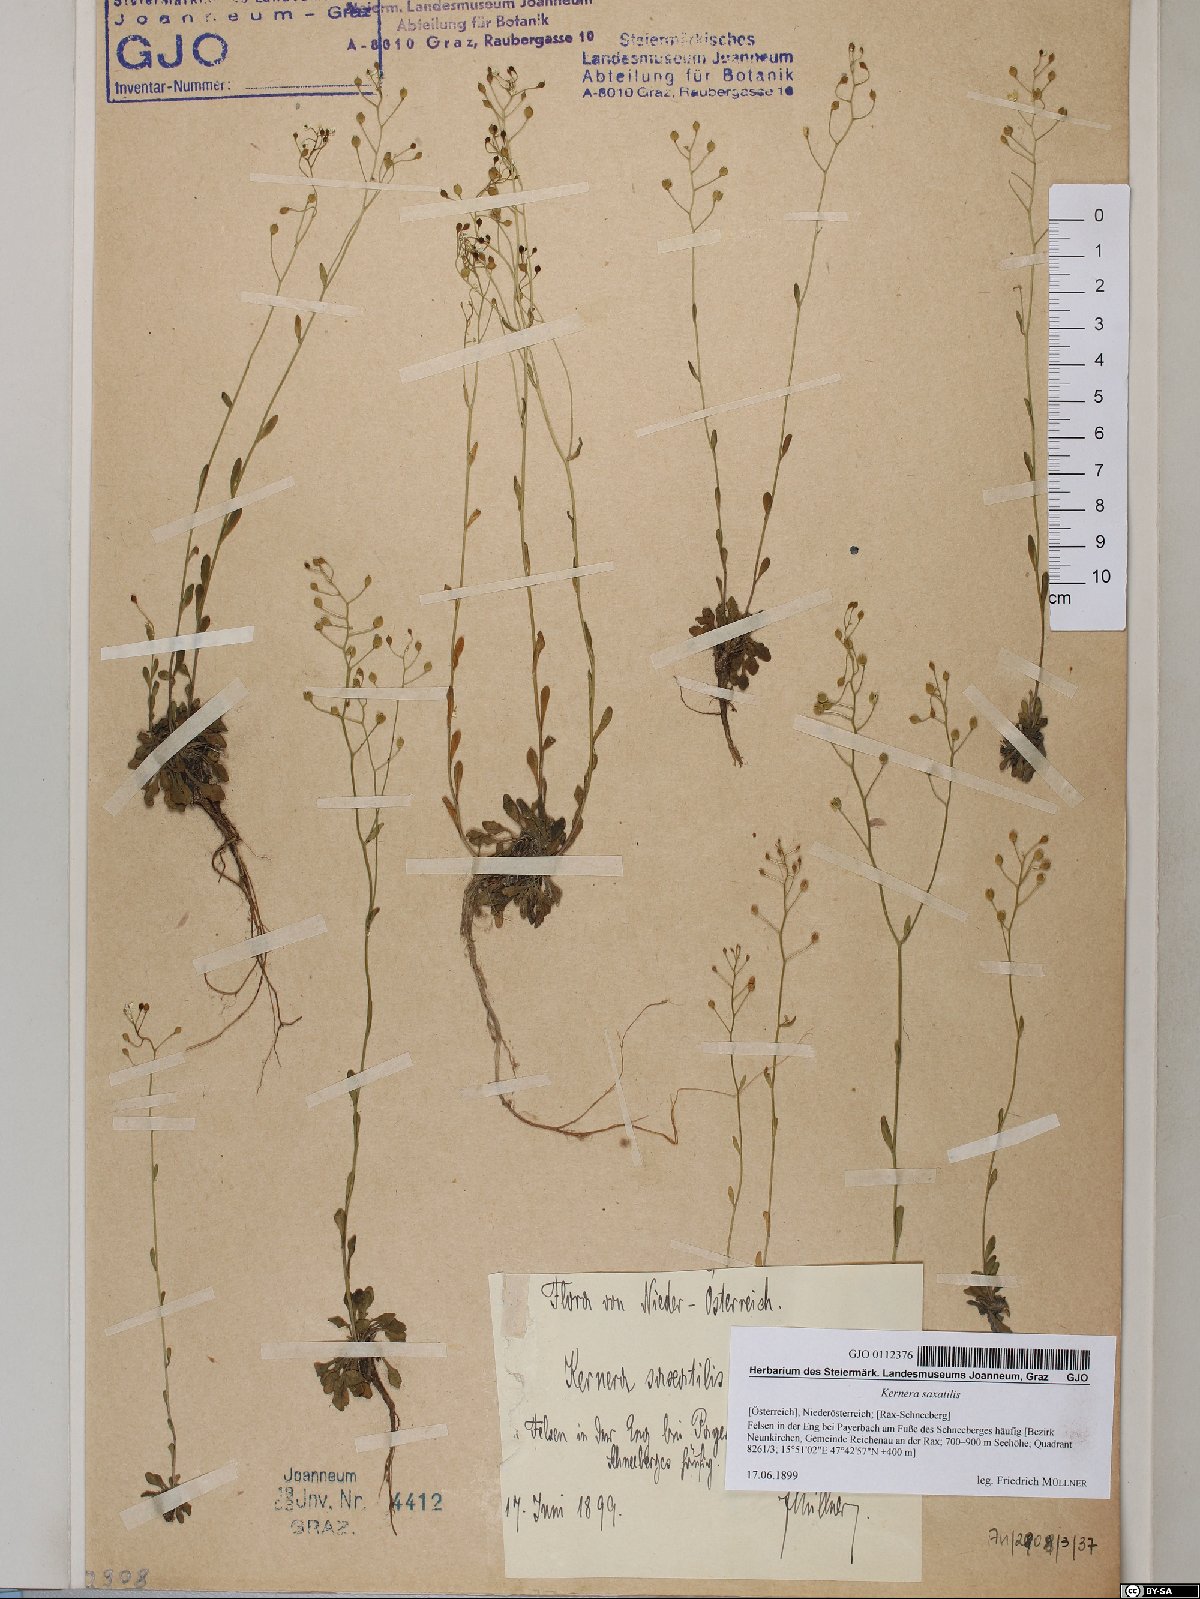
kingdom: Plantae
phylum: Tracheophyta
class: Magnoliopsida
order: Brassicales
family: Brassicaceae
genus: Kernera
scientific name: Kernera saxatilis
